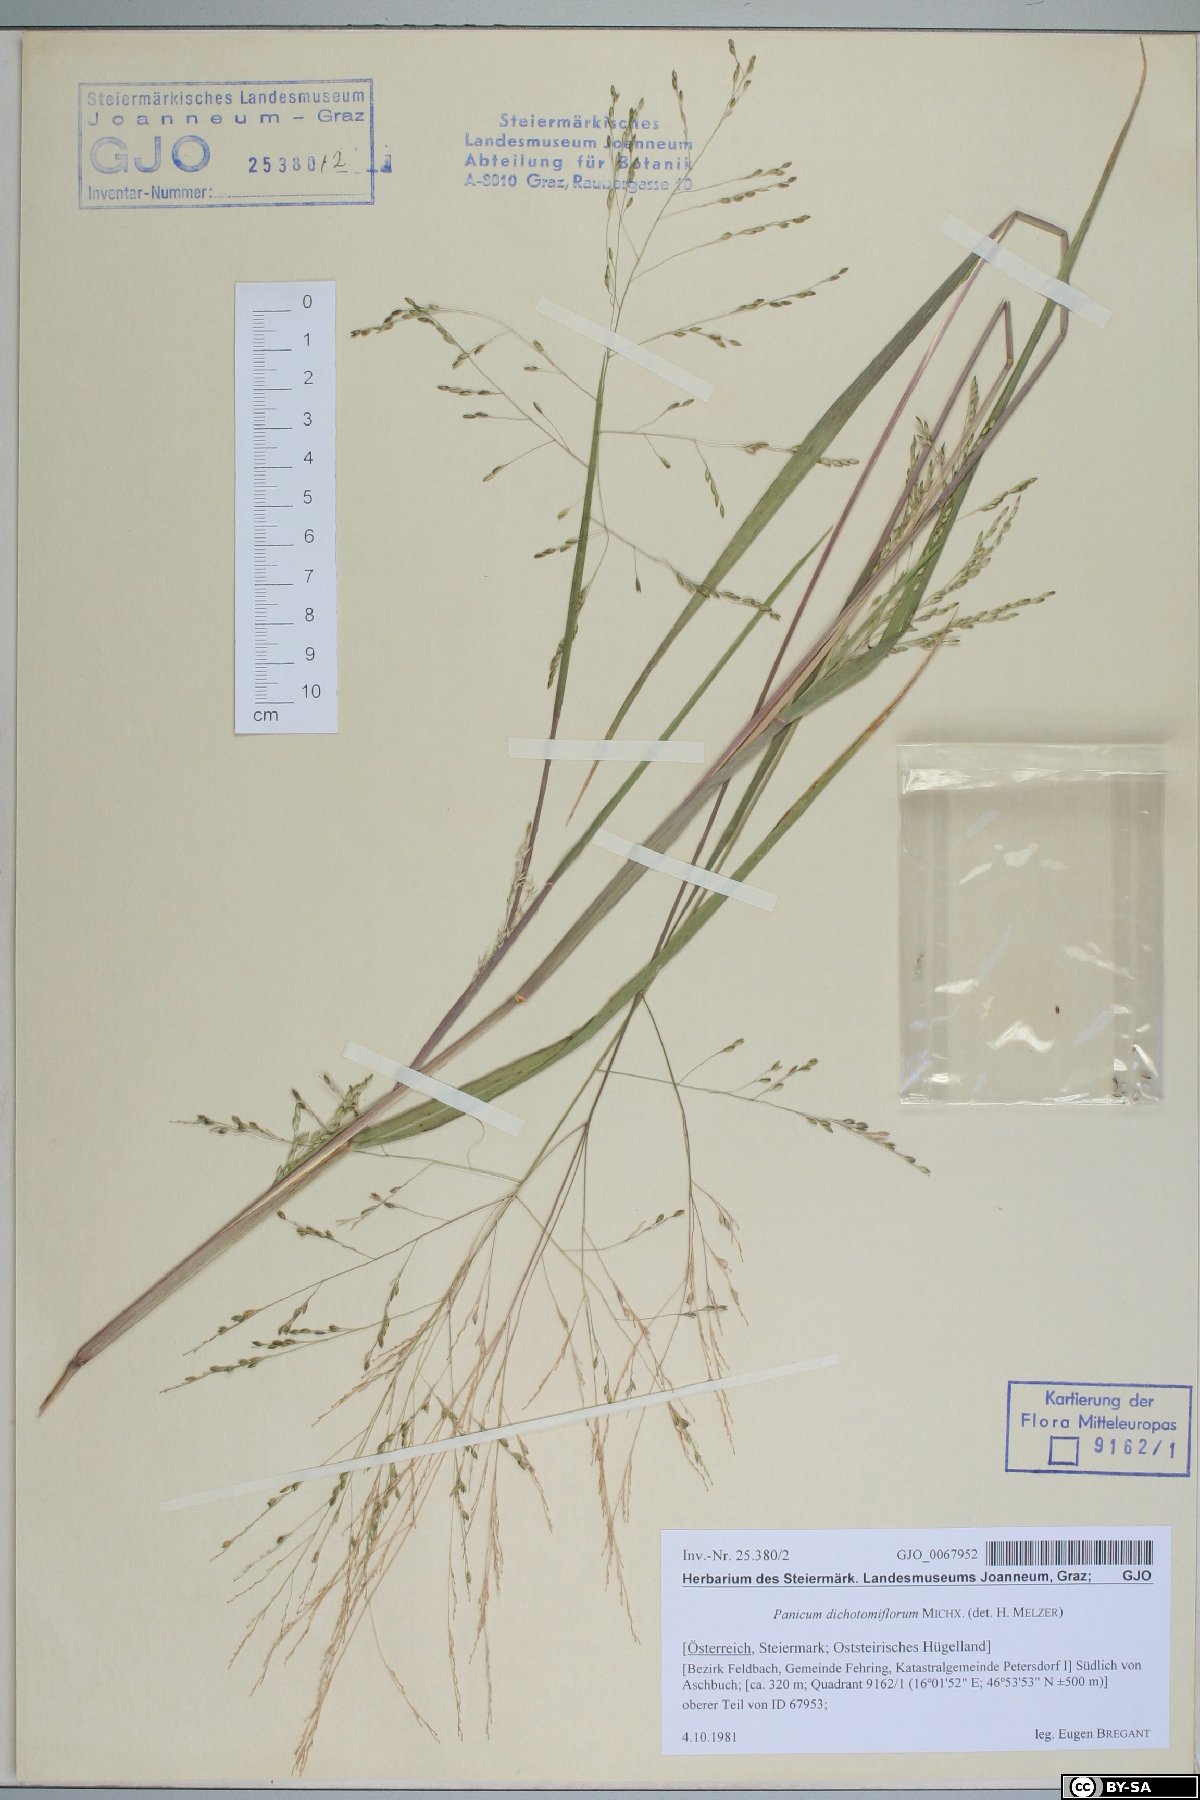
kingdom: Plantae
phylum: Tracheophyta
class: Liliopsida
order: Poales
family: Poaceae
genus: Panicum
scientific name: Panicum dichotomiflorum
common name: Autumn millet
